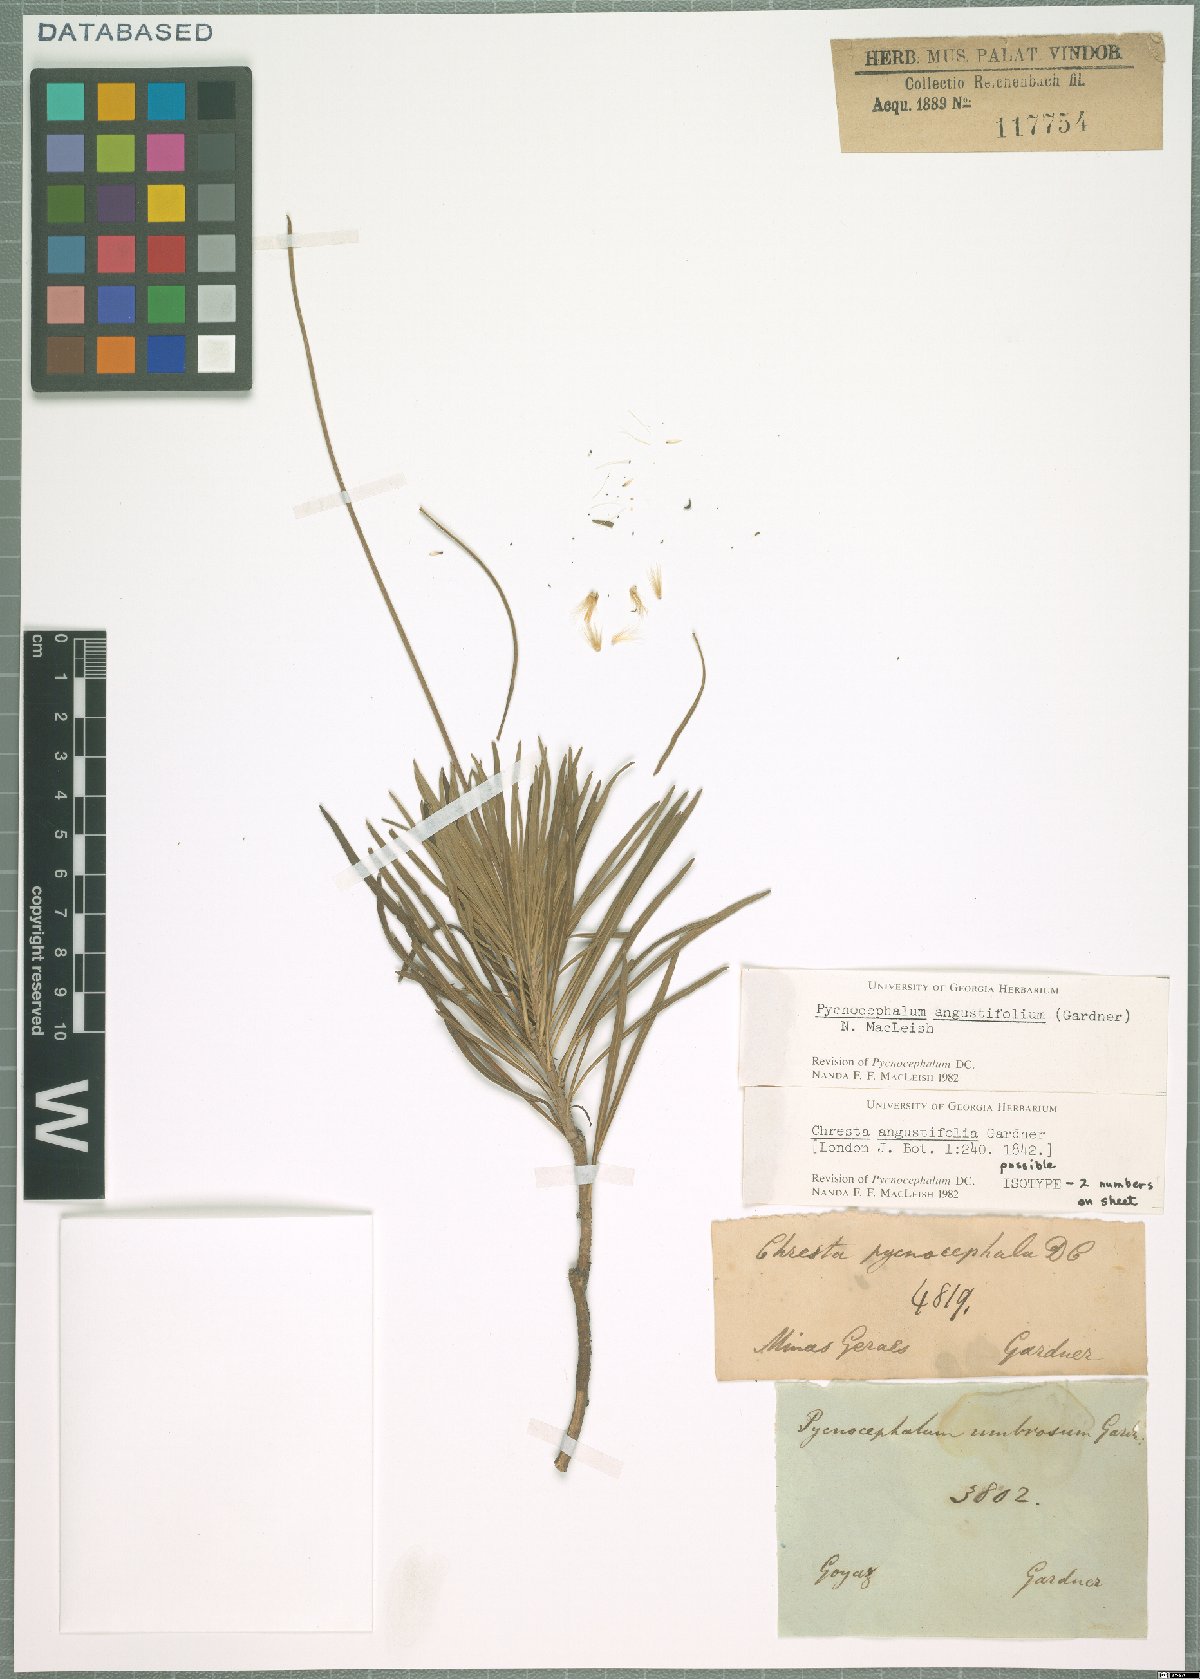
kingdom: Plantae
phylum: Tracheophyta
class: Magnoliopsida
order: Asterales
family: Asteraceae
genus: Chresta
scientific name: Chresta angustifolia
